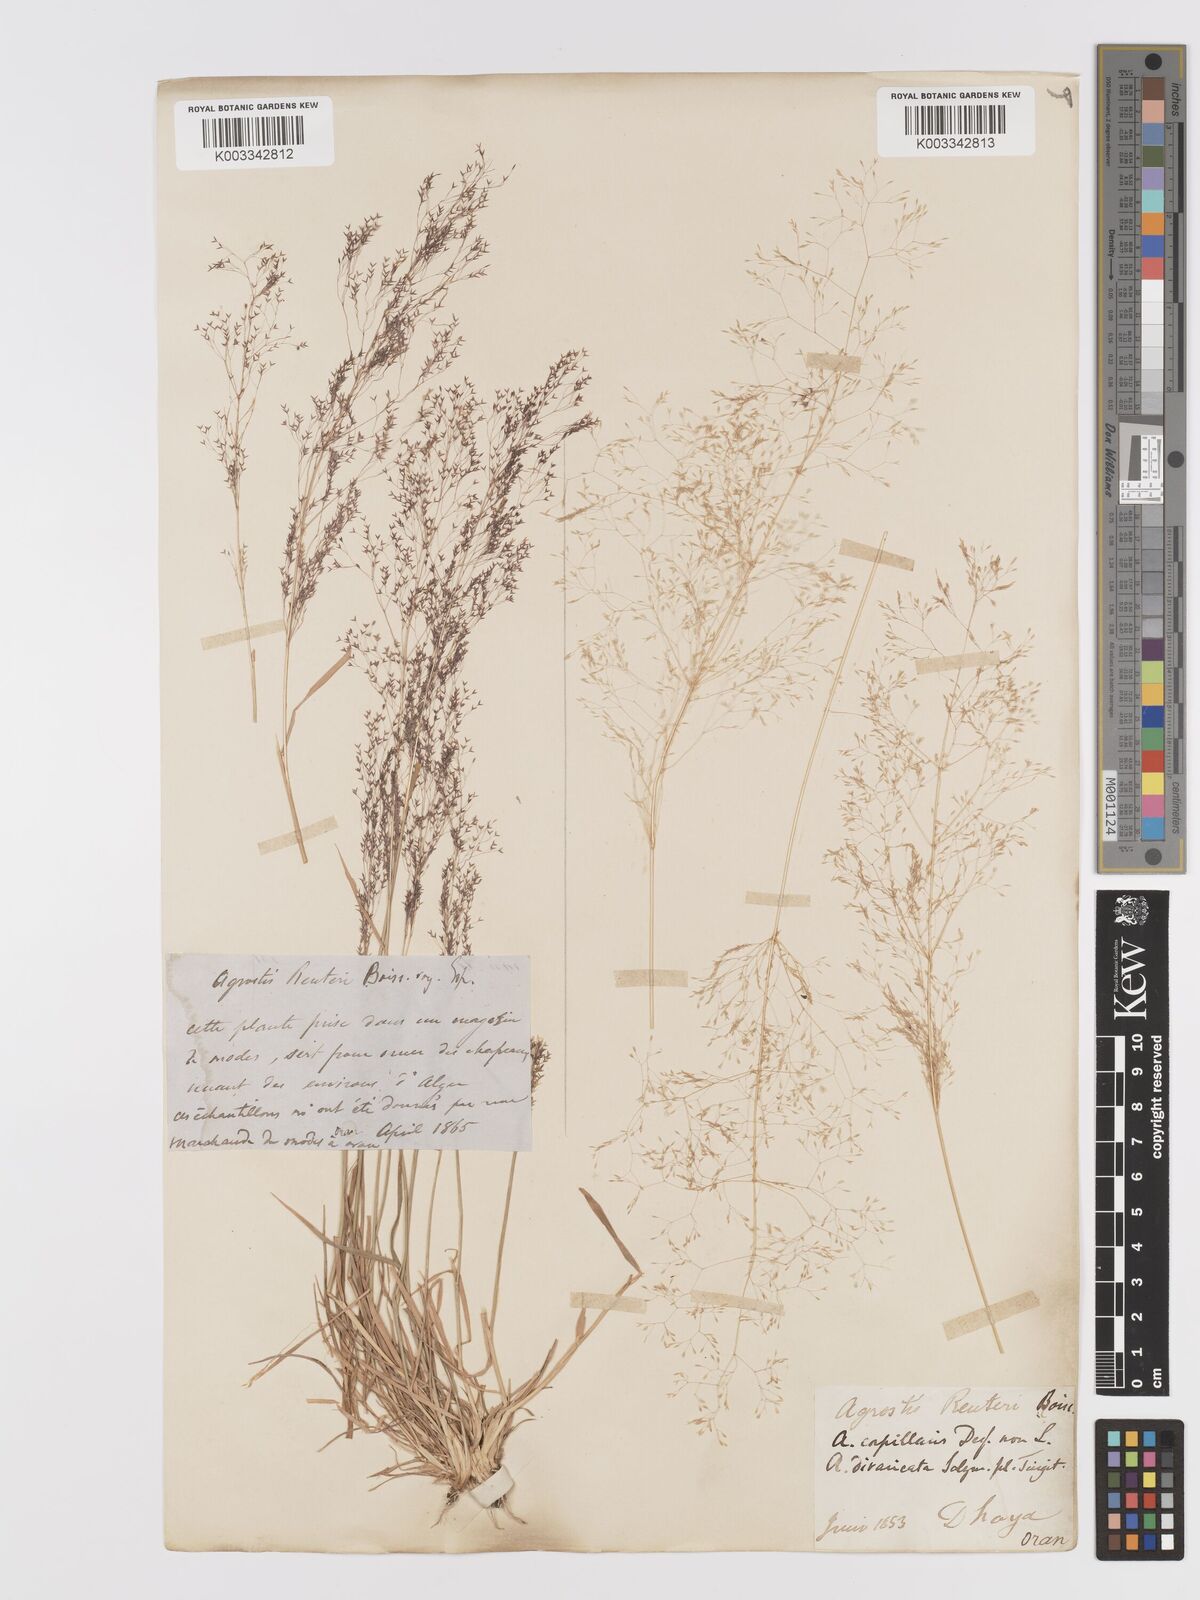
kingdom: Plantae
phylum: Tracheophyta
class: Liliopsida
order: Poales
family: Poaceae
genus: Agrostis
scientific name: Agrostis reuteri
